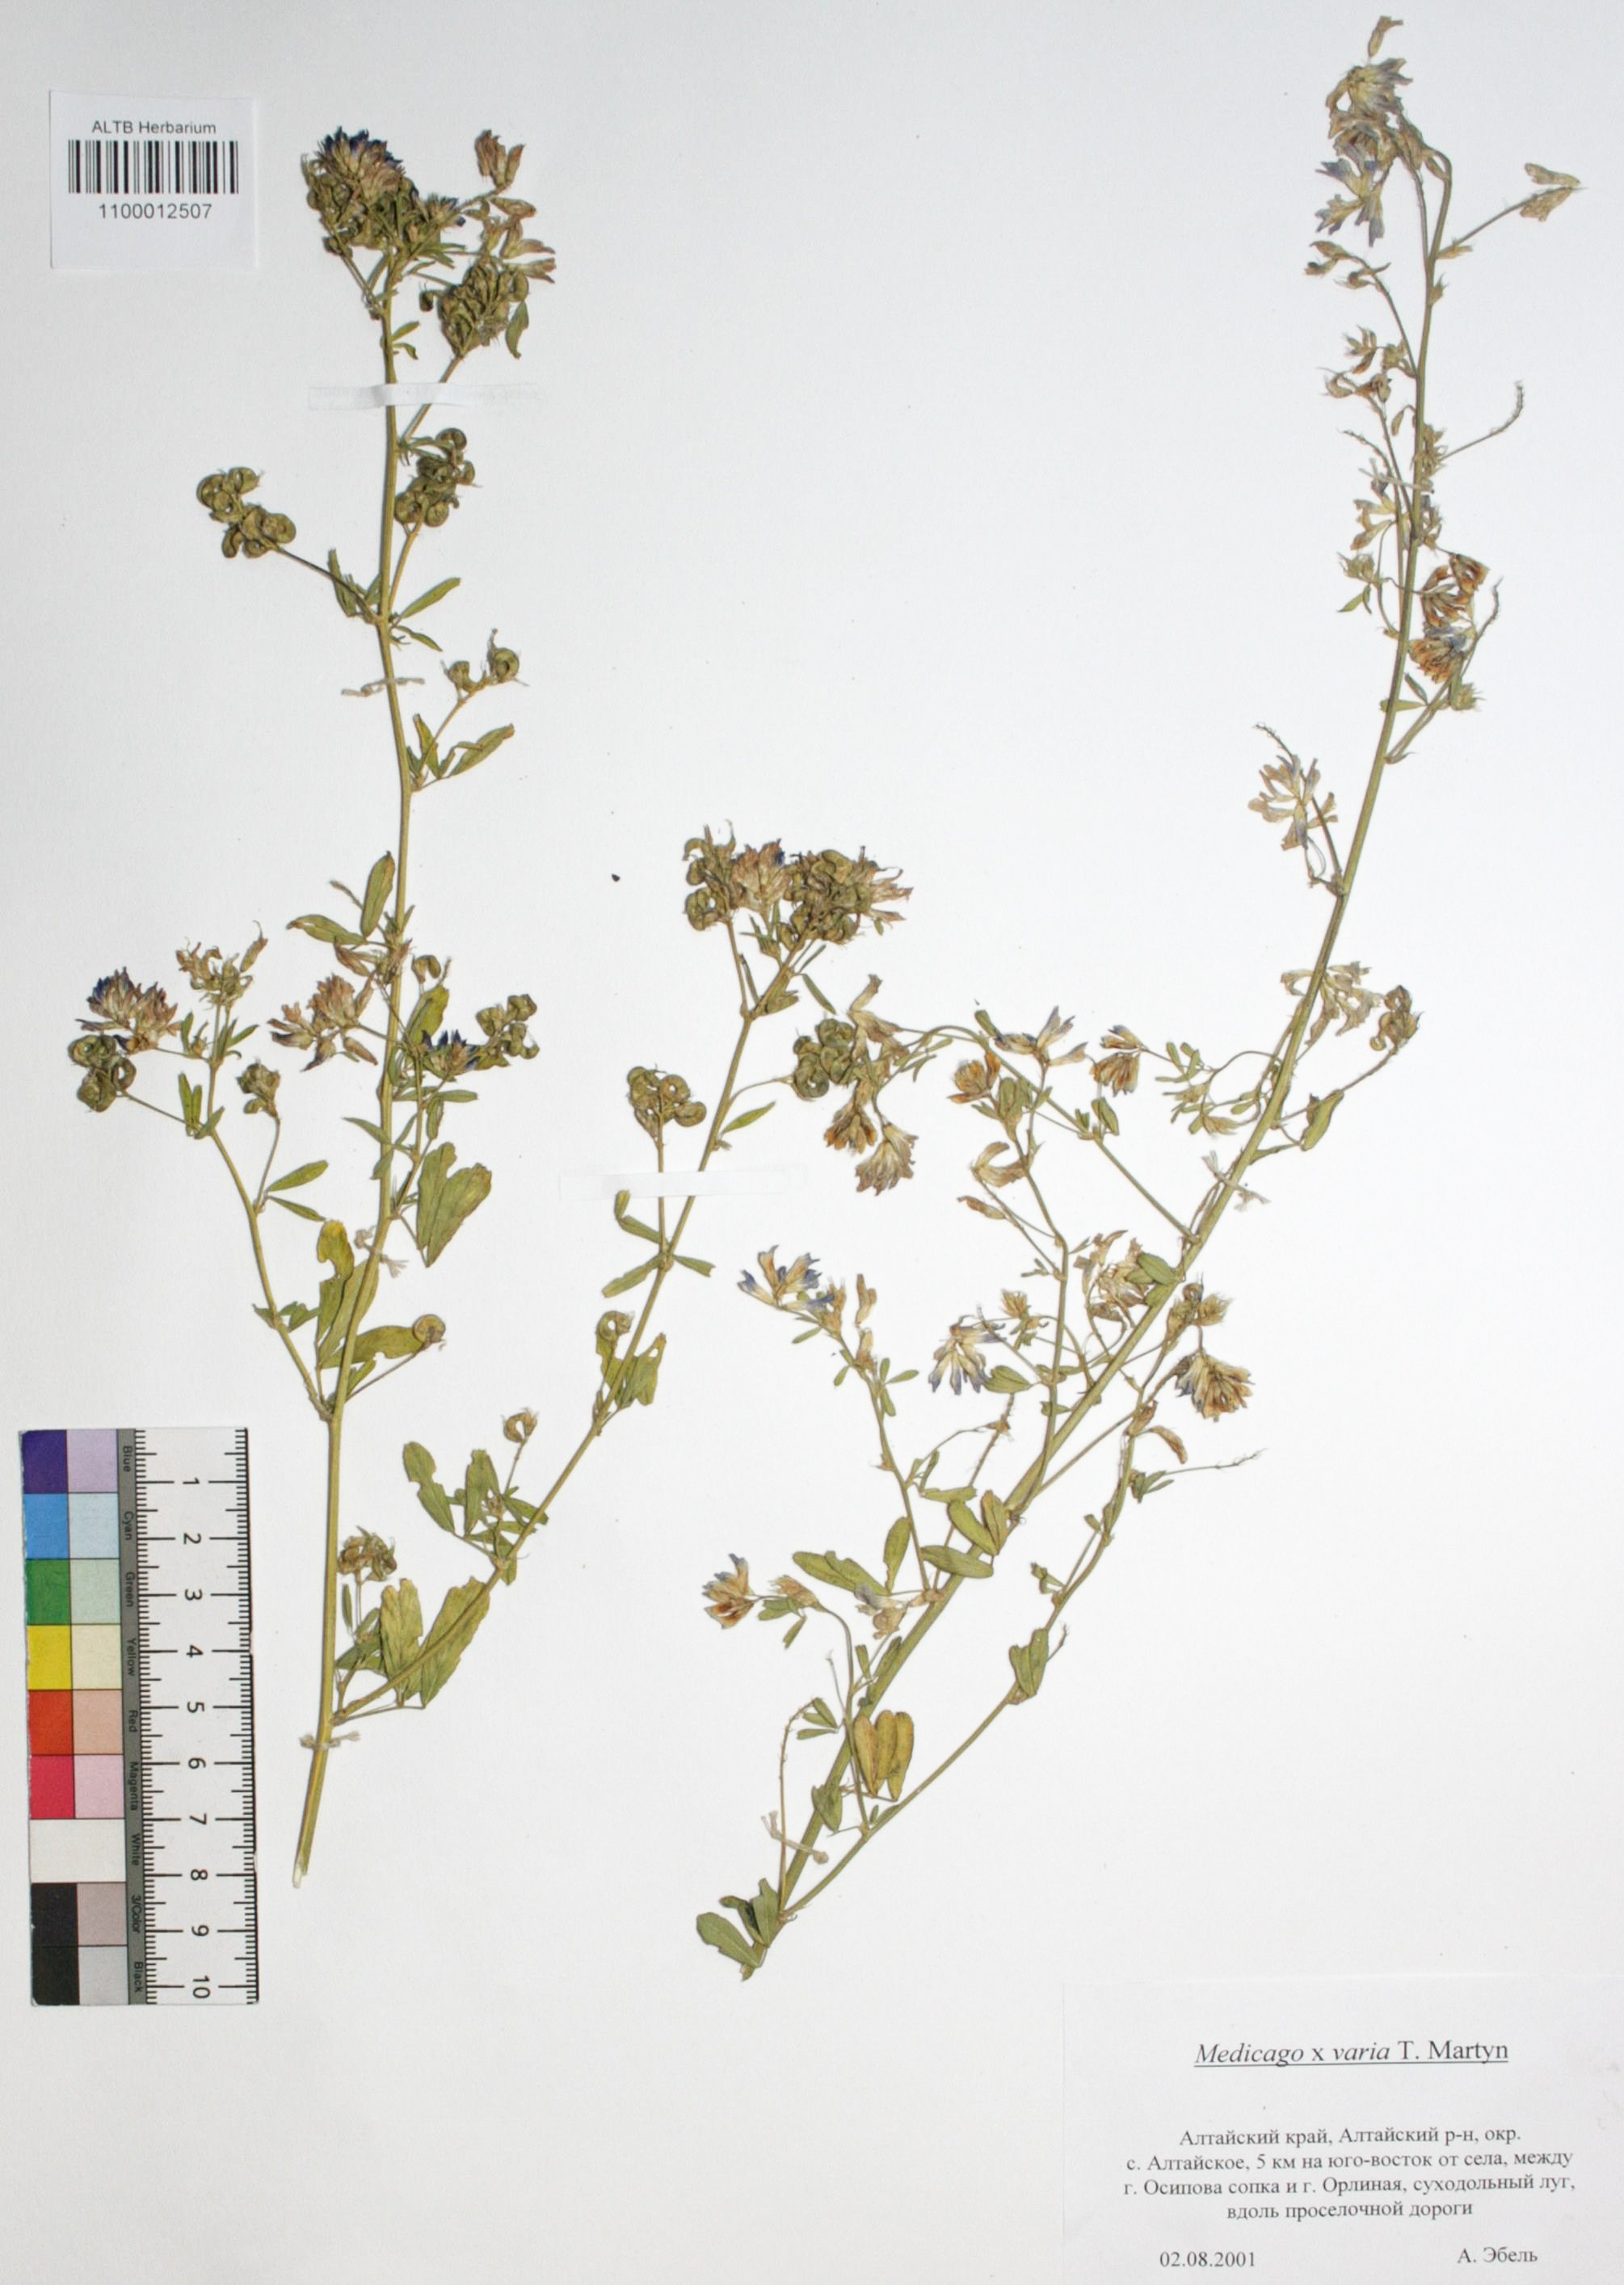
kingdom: Plantae
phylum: Tracheophyta
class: Magnoliopsida
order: Fabales
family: Fabaceae
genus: Medicago
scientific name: Medicago varia
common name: Sand lucerne
